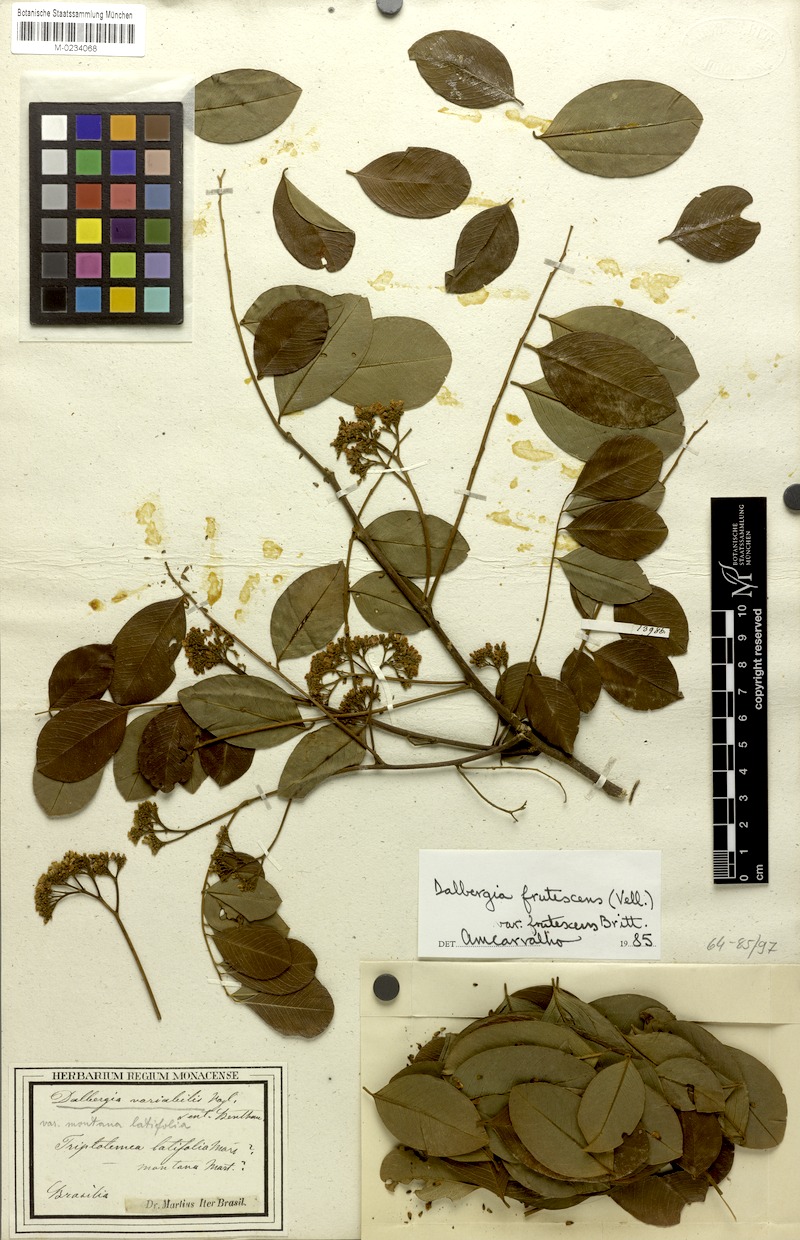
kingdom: Plantae
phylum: Tracheophyta
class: Magnoliopsida
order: Fabales
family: Fabaceae
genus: Dalbergia
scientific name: Dalbergia frutescens
